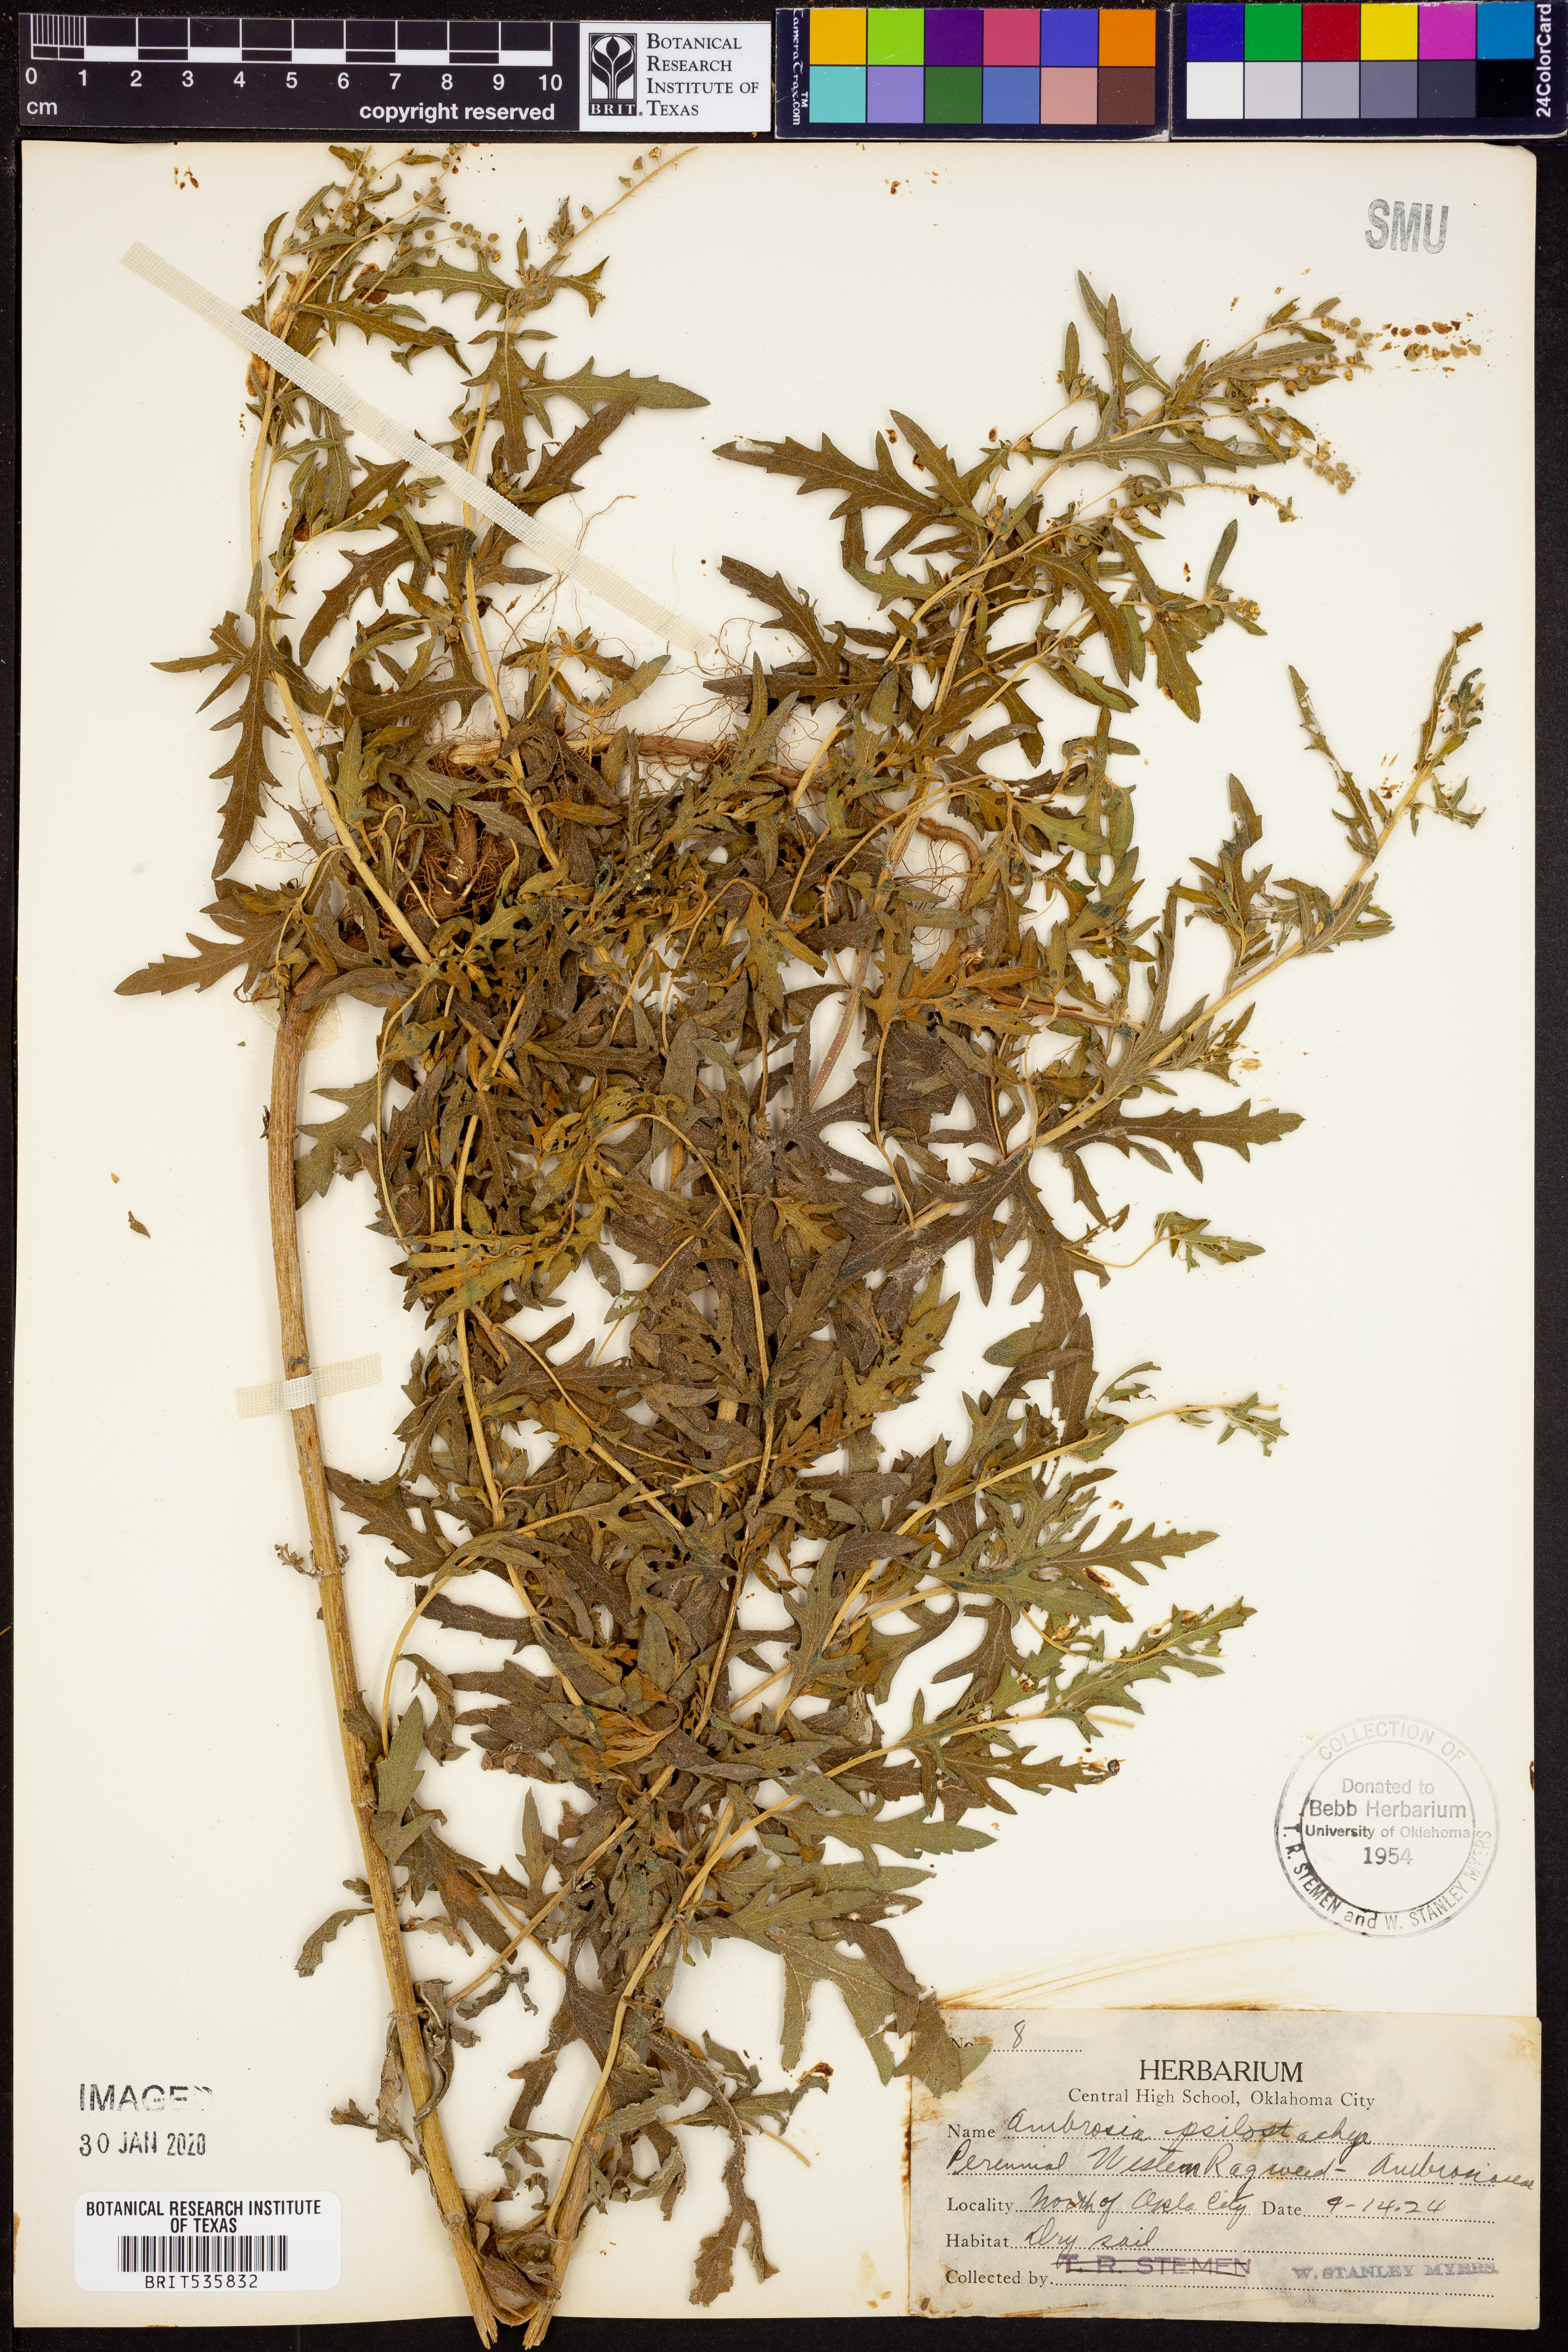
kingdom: Plantae
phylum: Tracheophyta
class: Magnoliopsida
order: Asterales
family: Asteraceae
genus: Ambrosia
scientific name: Ambrosia psilostachya
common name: Perennial ragweed
